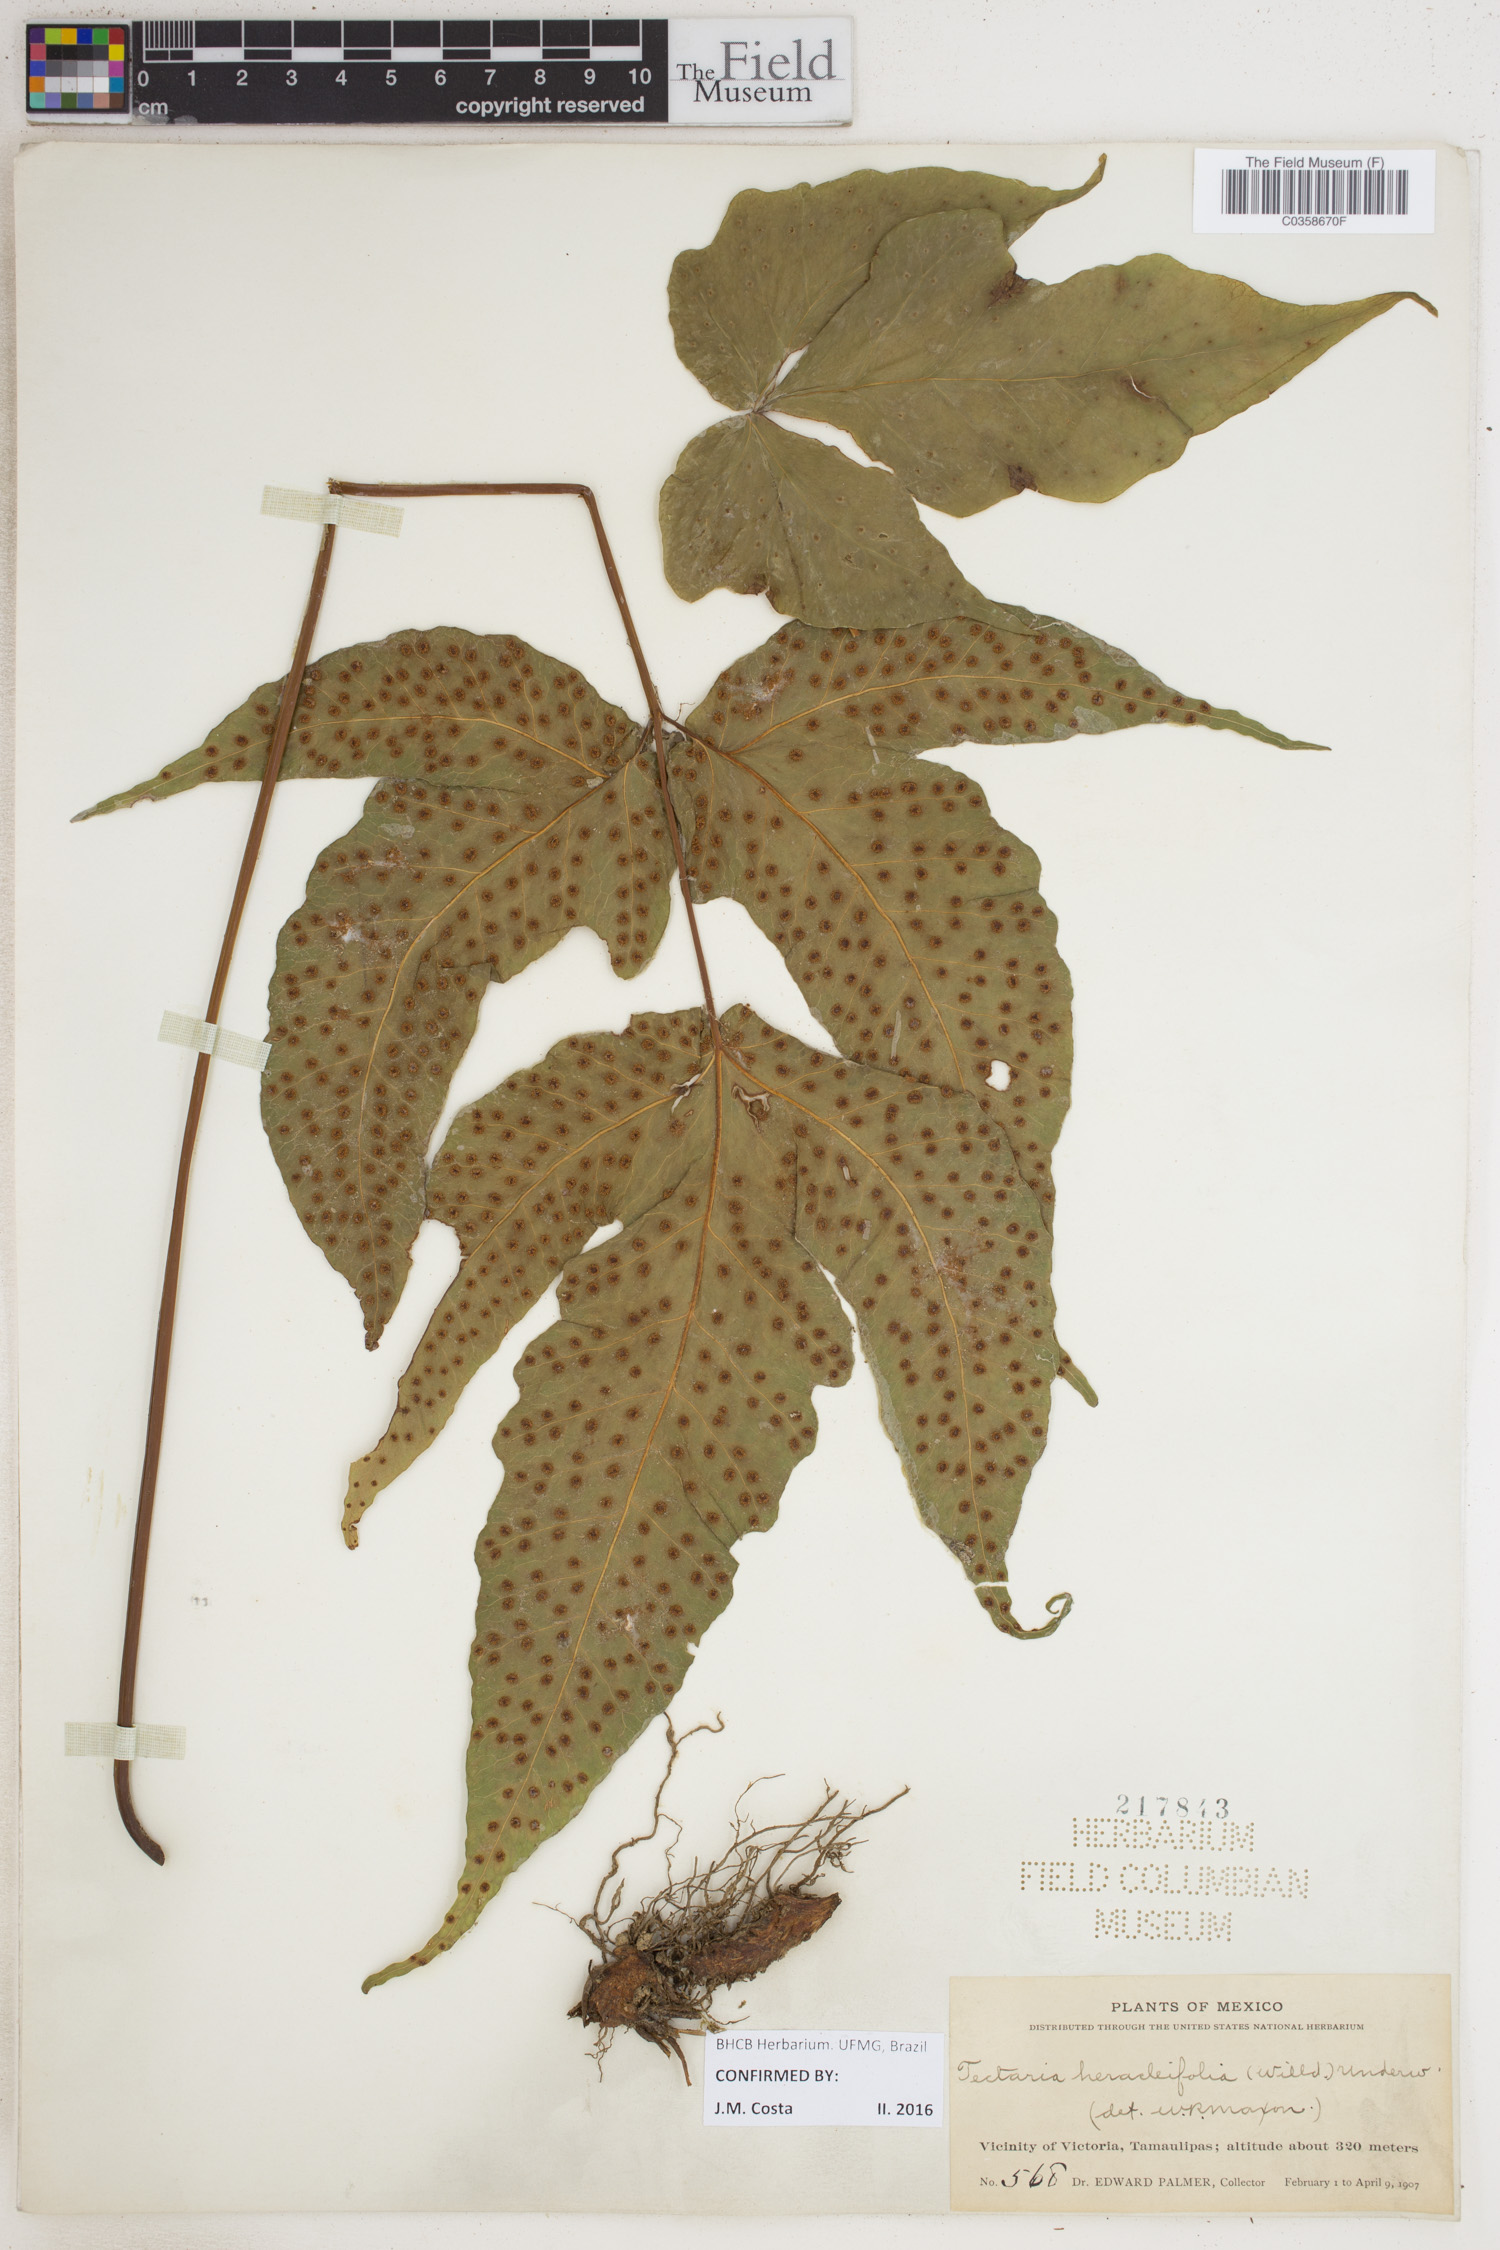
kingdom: Plantae
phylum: Tracheophyta
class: Polypodiopsida
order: Polypodiales
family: Tectariaceae
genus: Tectaria
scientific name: Tectaria heracleifolia
